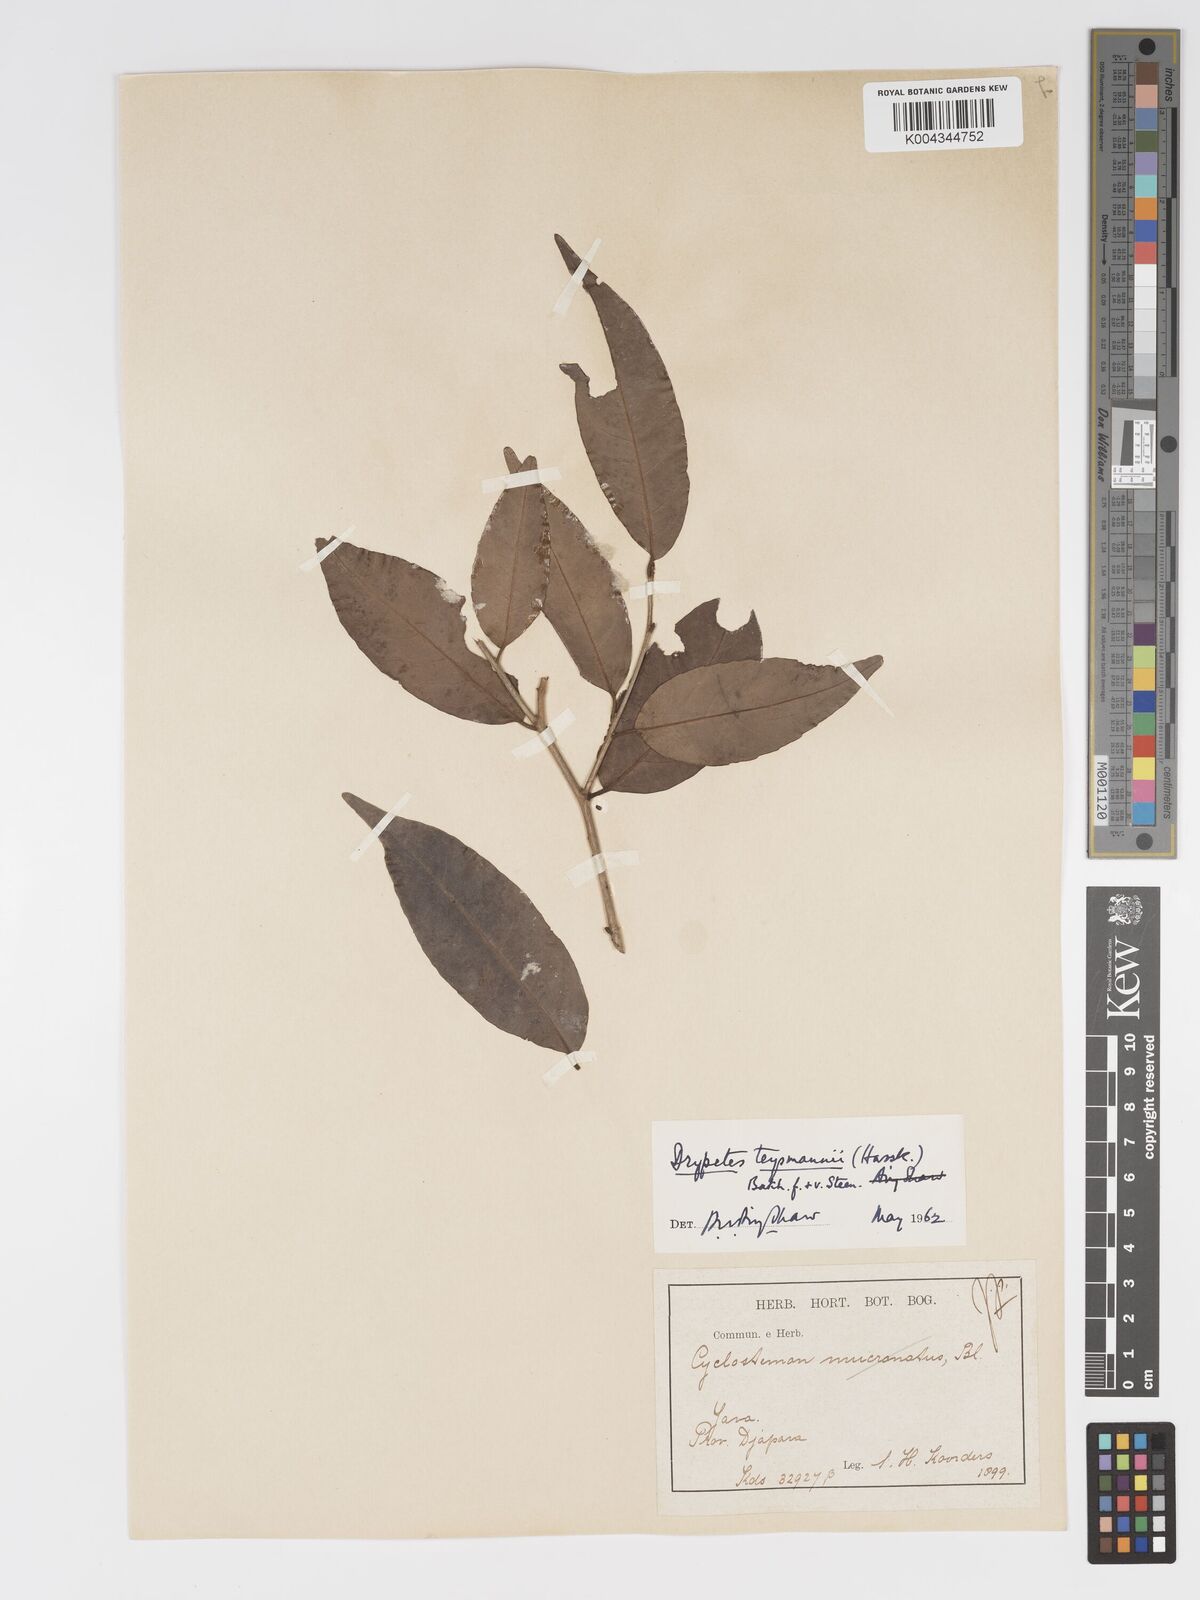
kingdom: Plantae
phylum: Tracheophyta
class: Magnoliopsida
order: Malpighiales
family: Putranjivaceae
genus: Drypetes
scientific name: Drypetes teysmannii
